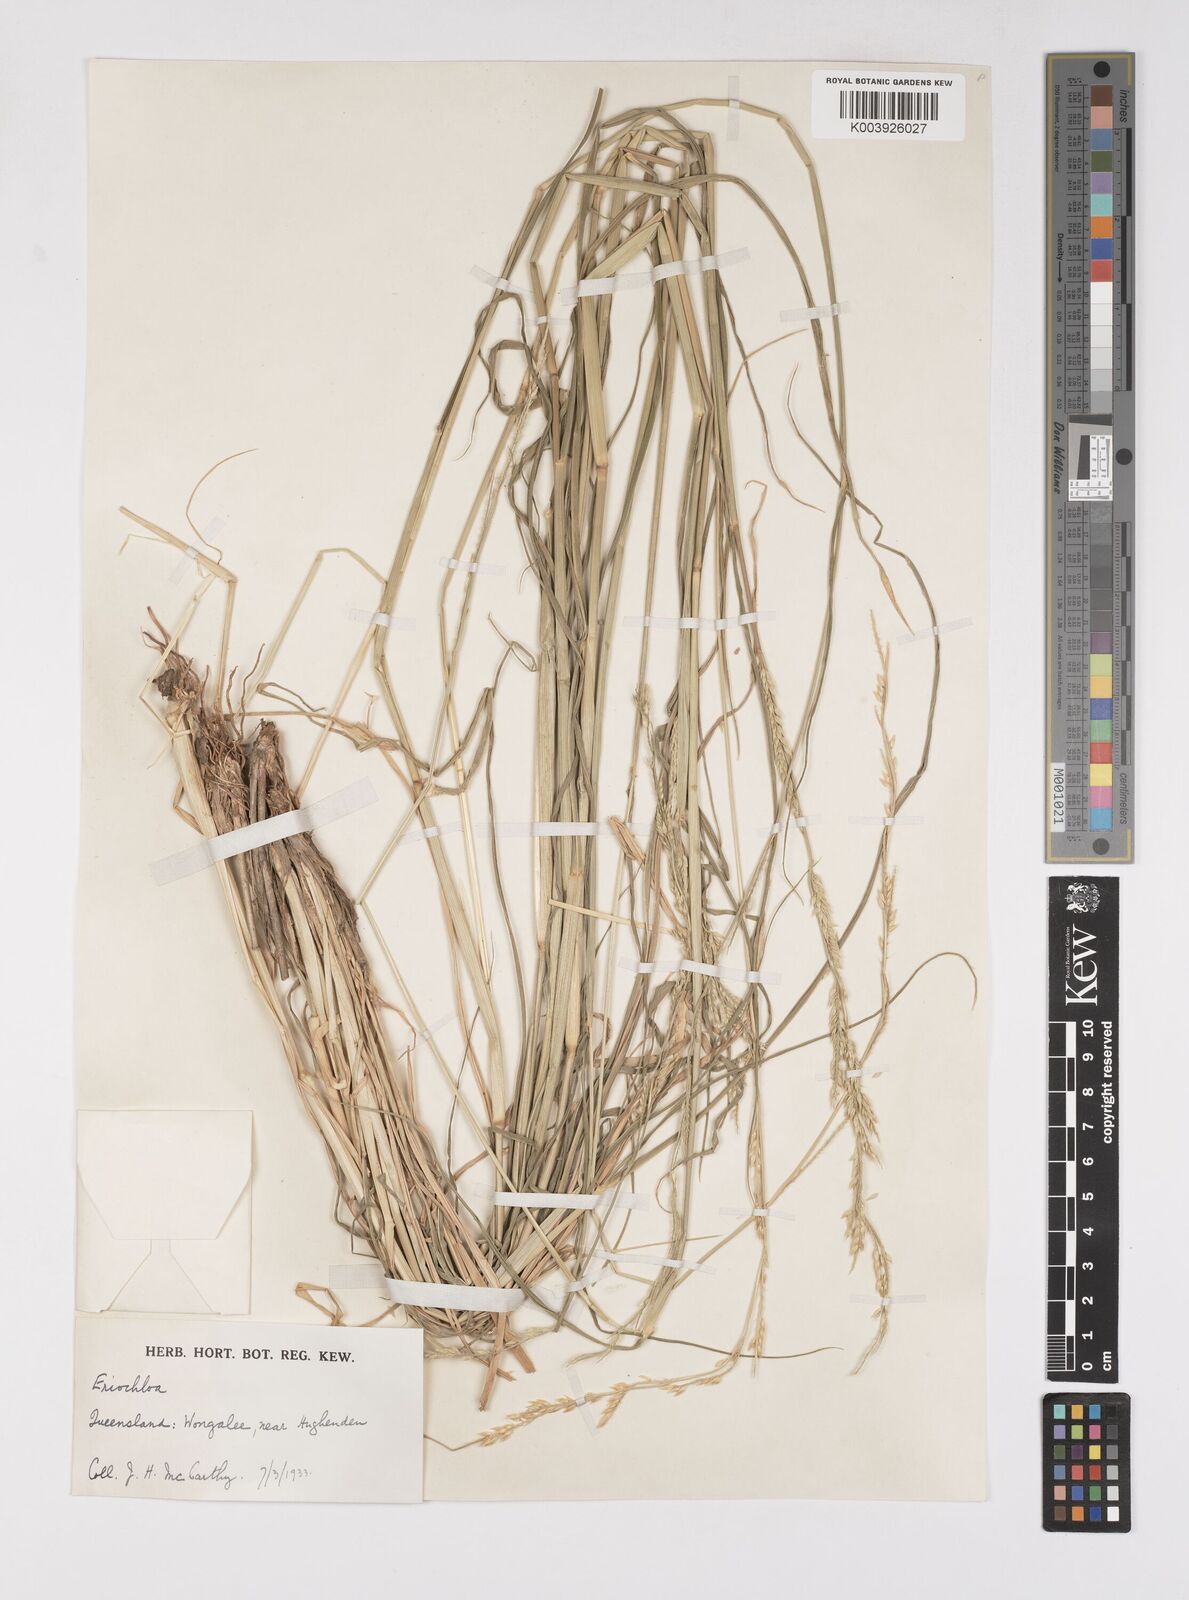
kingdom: Plantae
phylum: Tracheophyta
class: Liliopsida
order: Poales
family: Poaceae
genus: Eriochloa
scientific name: Eriochloa
